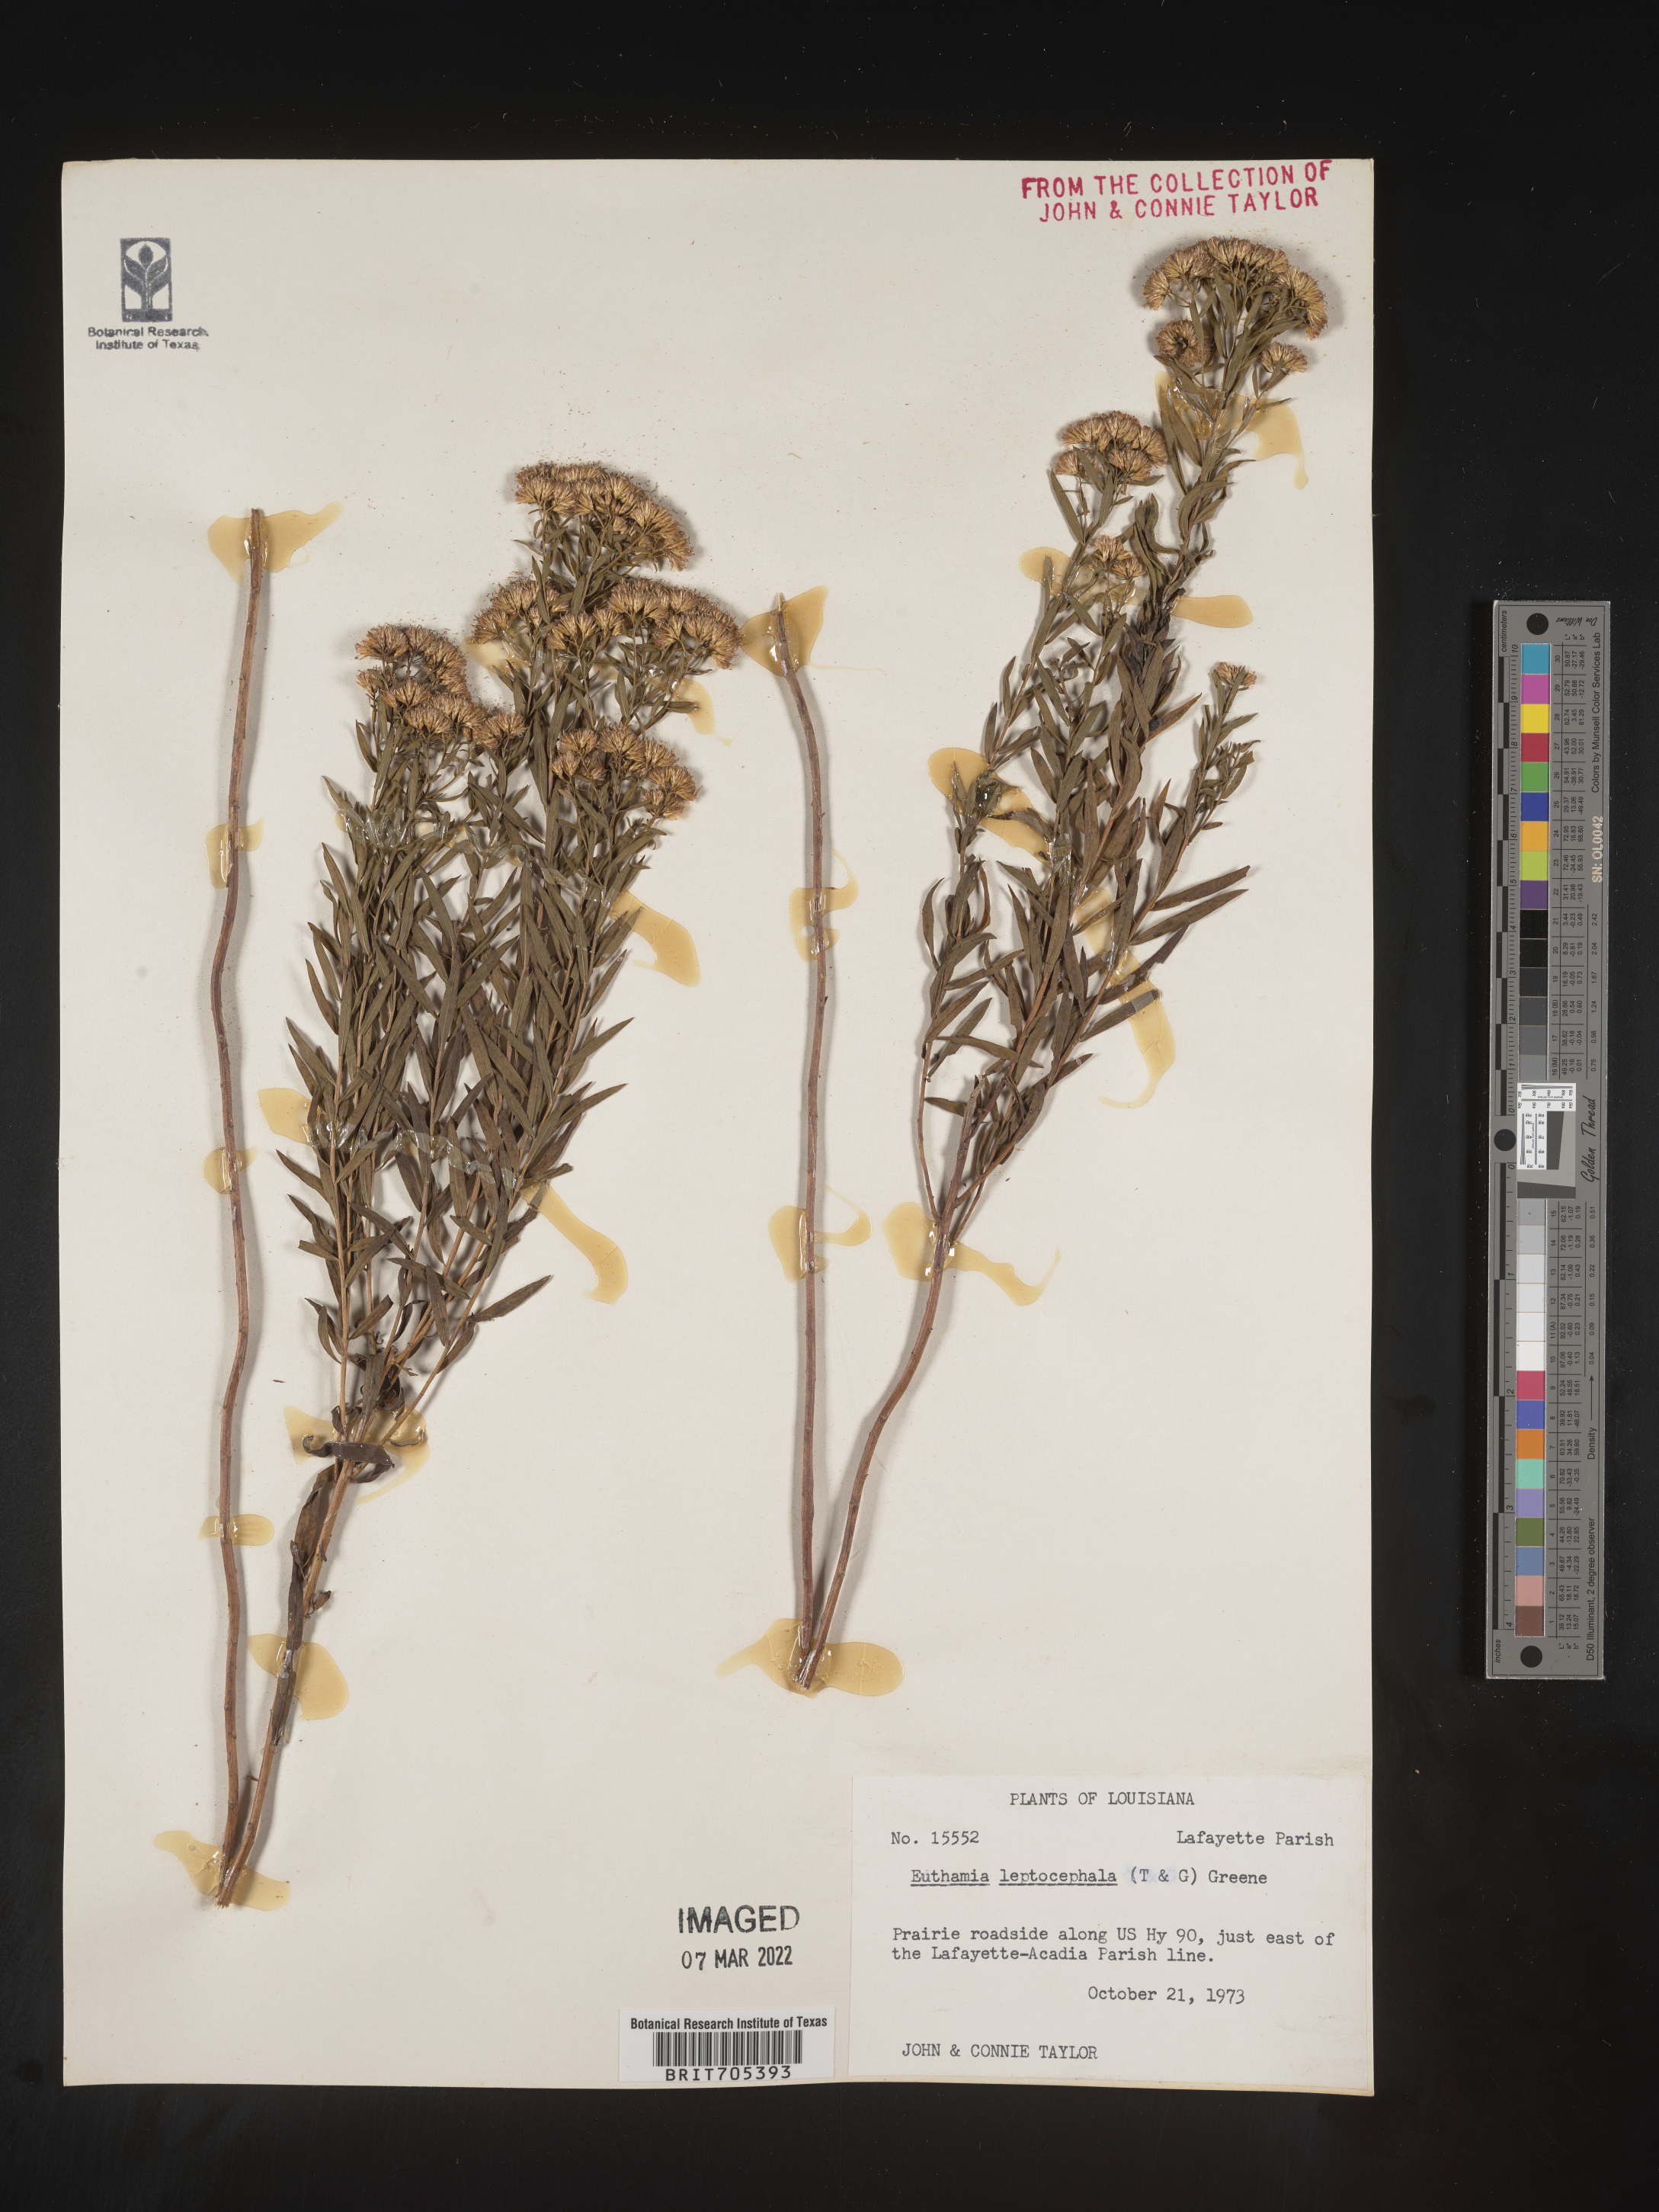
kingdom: Plantae
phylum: Tracheophyta
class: Magnoliopsida
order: Asterales
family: Asteraceae
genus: Euthamia
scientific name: Euthamia leptocephala
